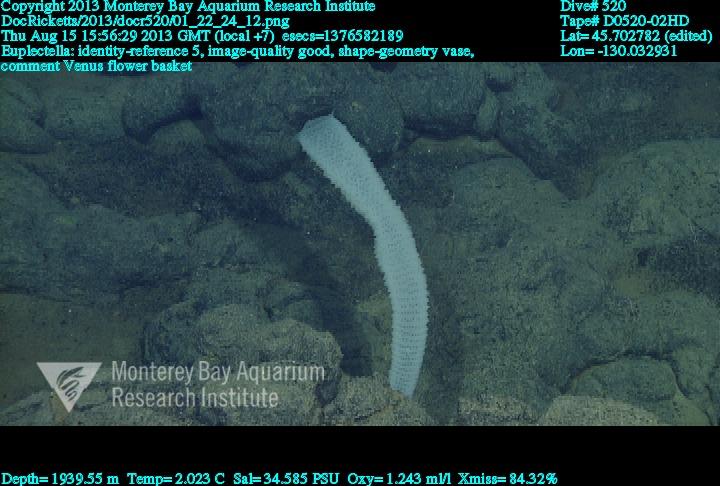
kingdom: Animalia
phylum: Porifera
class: Hexactinellida
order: Lyssacinosida
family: Euplectellidae
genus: Euplectella
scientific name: Euplectella
